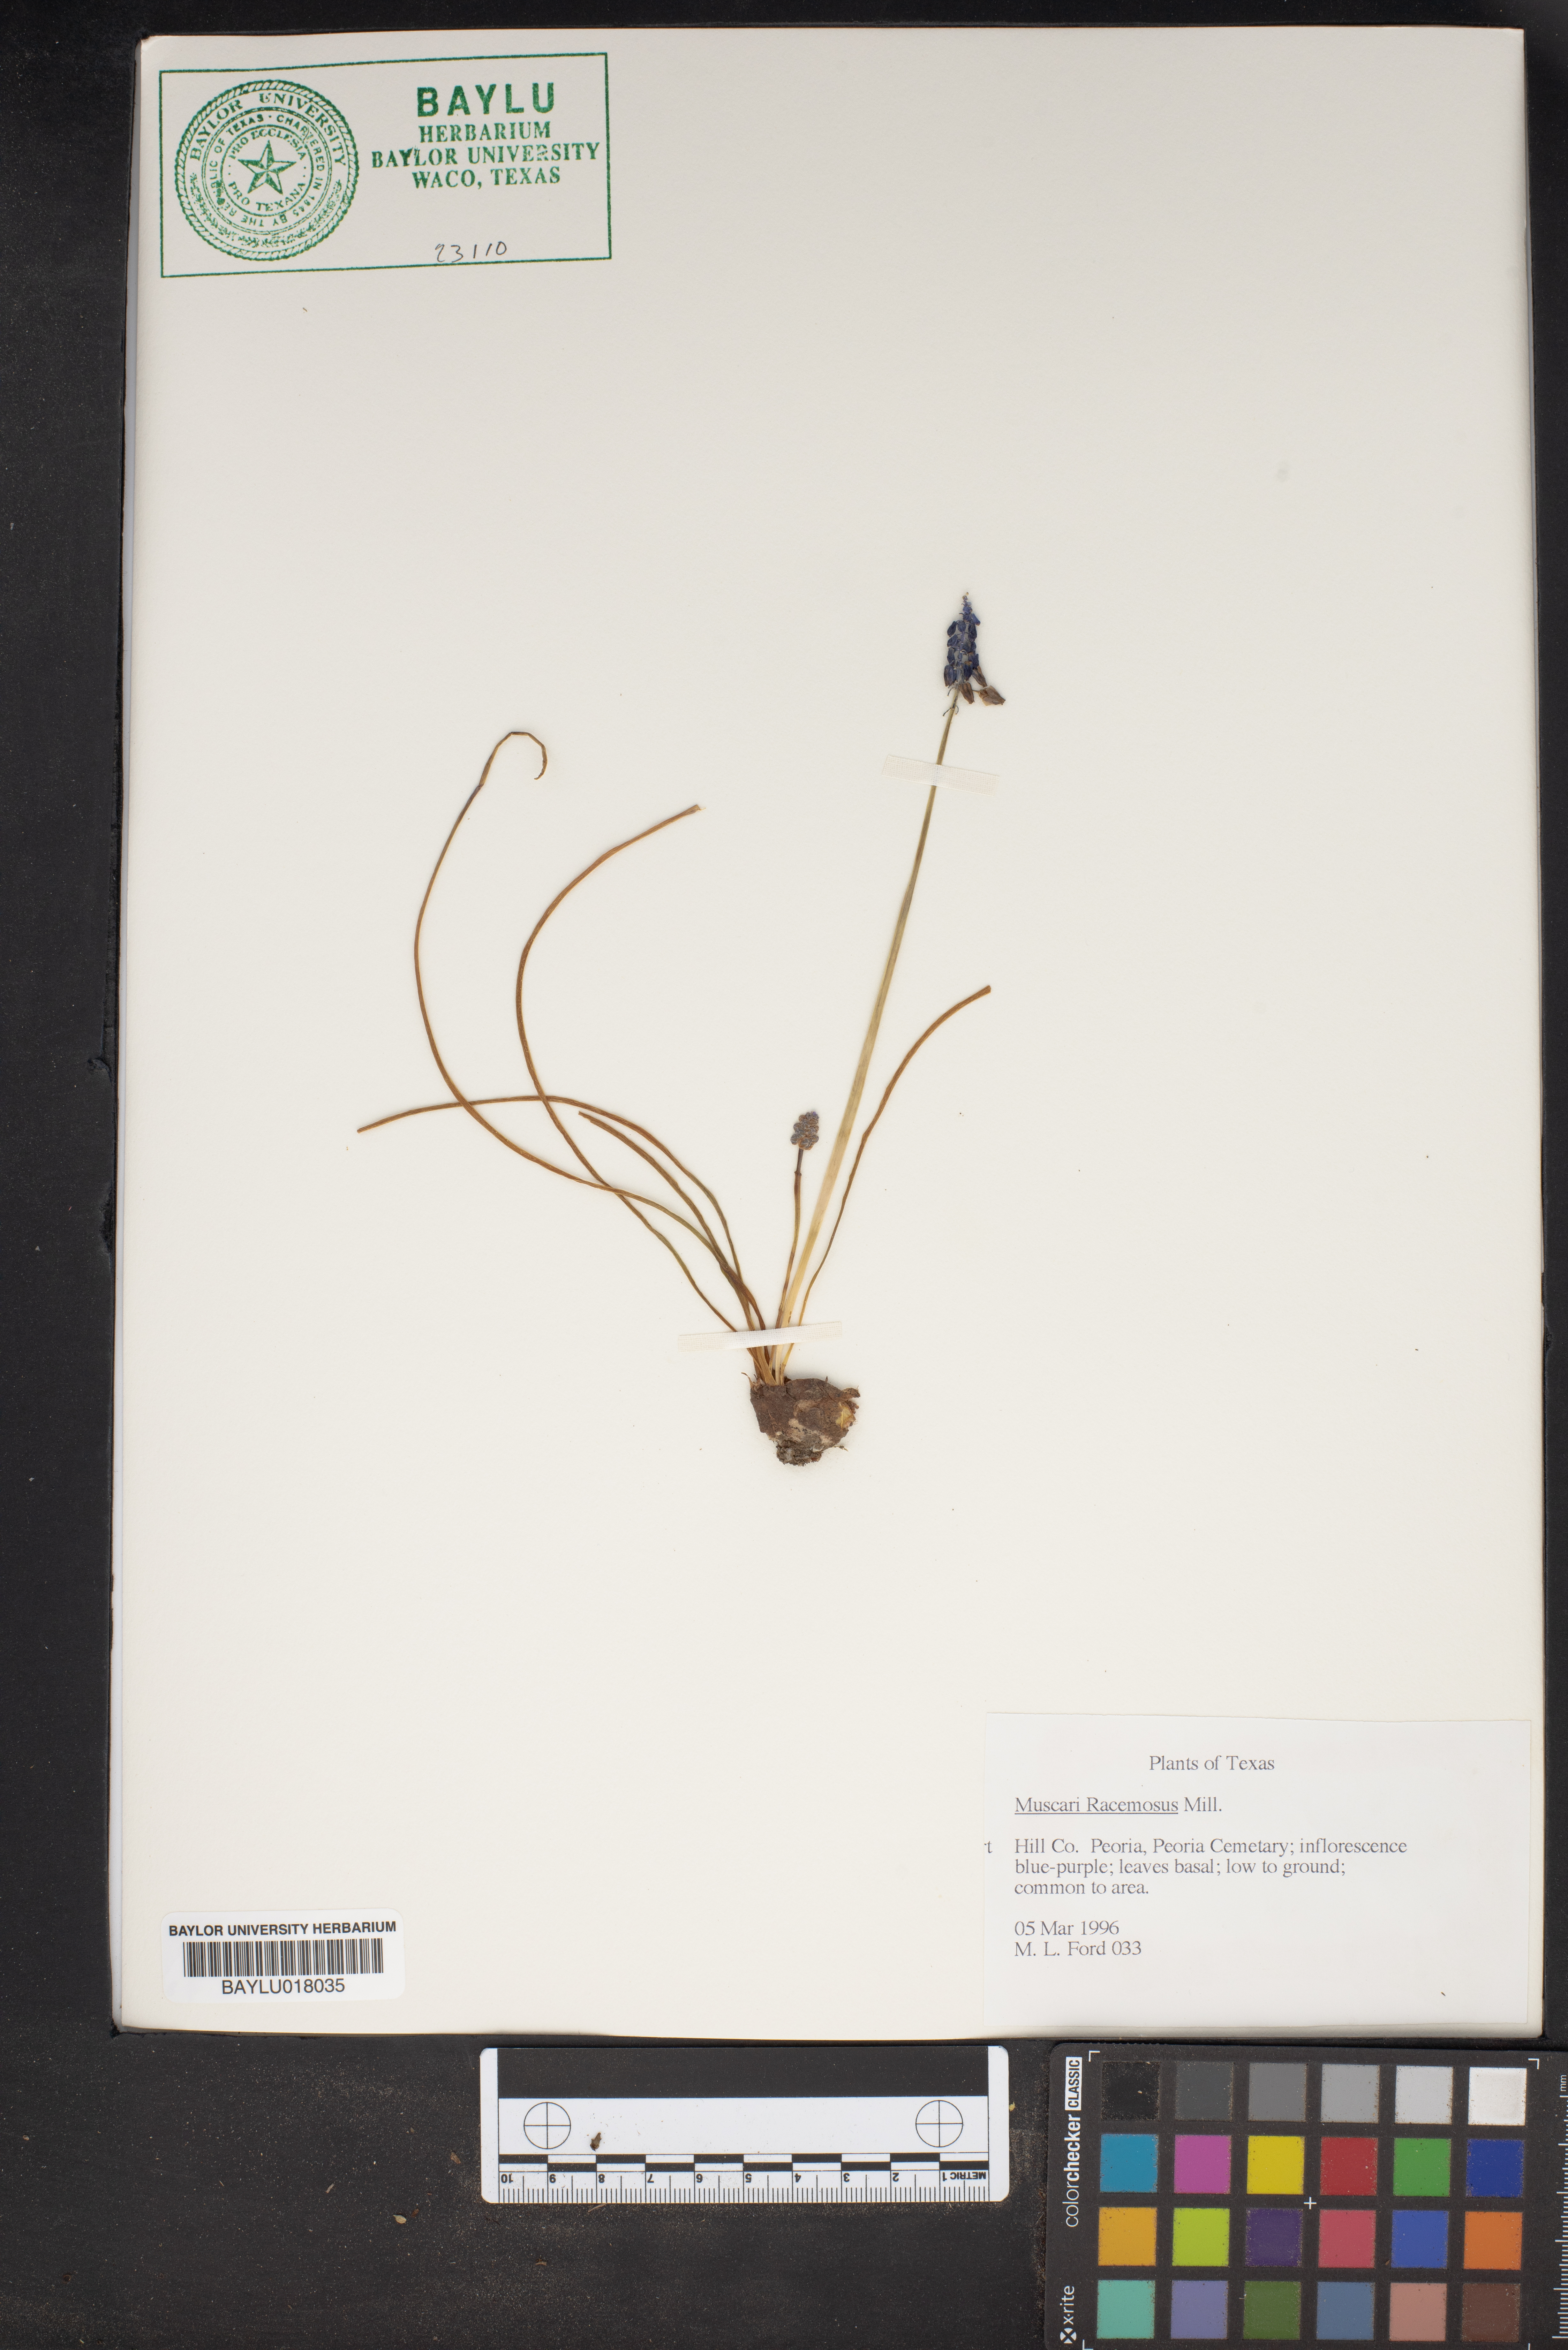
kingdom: Plantae
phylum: Tracheophyta
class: Liliopsida
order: Asparagales
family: Asparagaceae
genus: Muscarimia
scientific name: Muscarimia muscari
